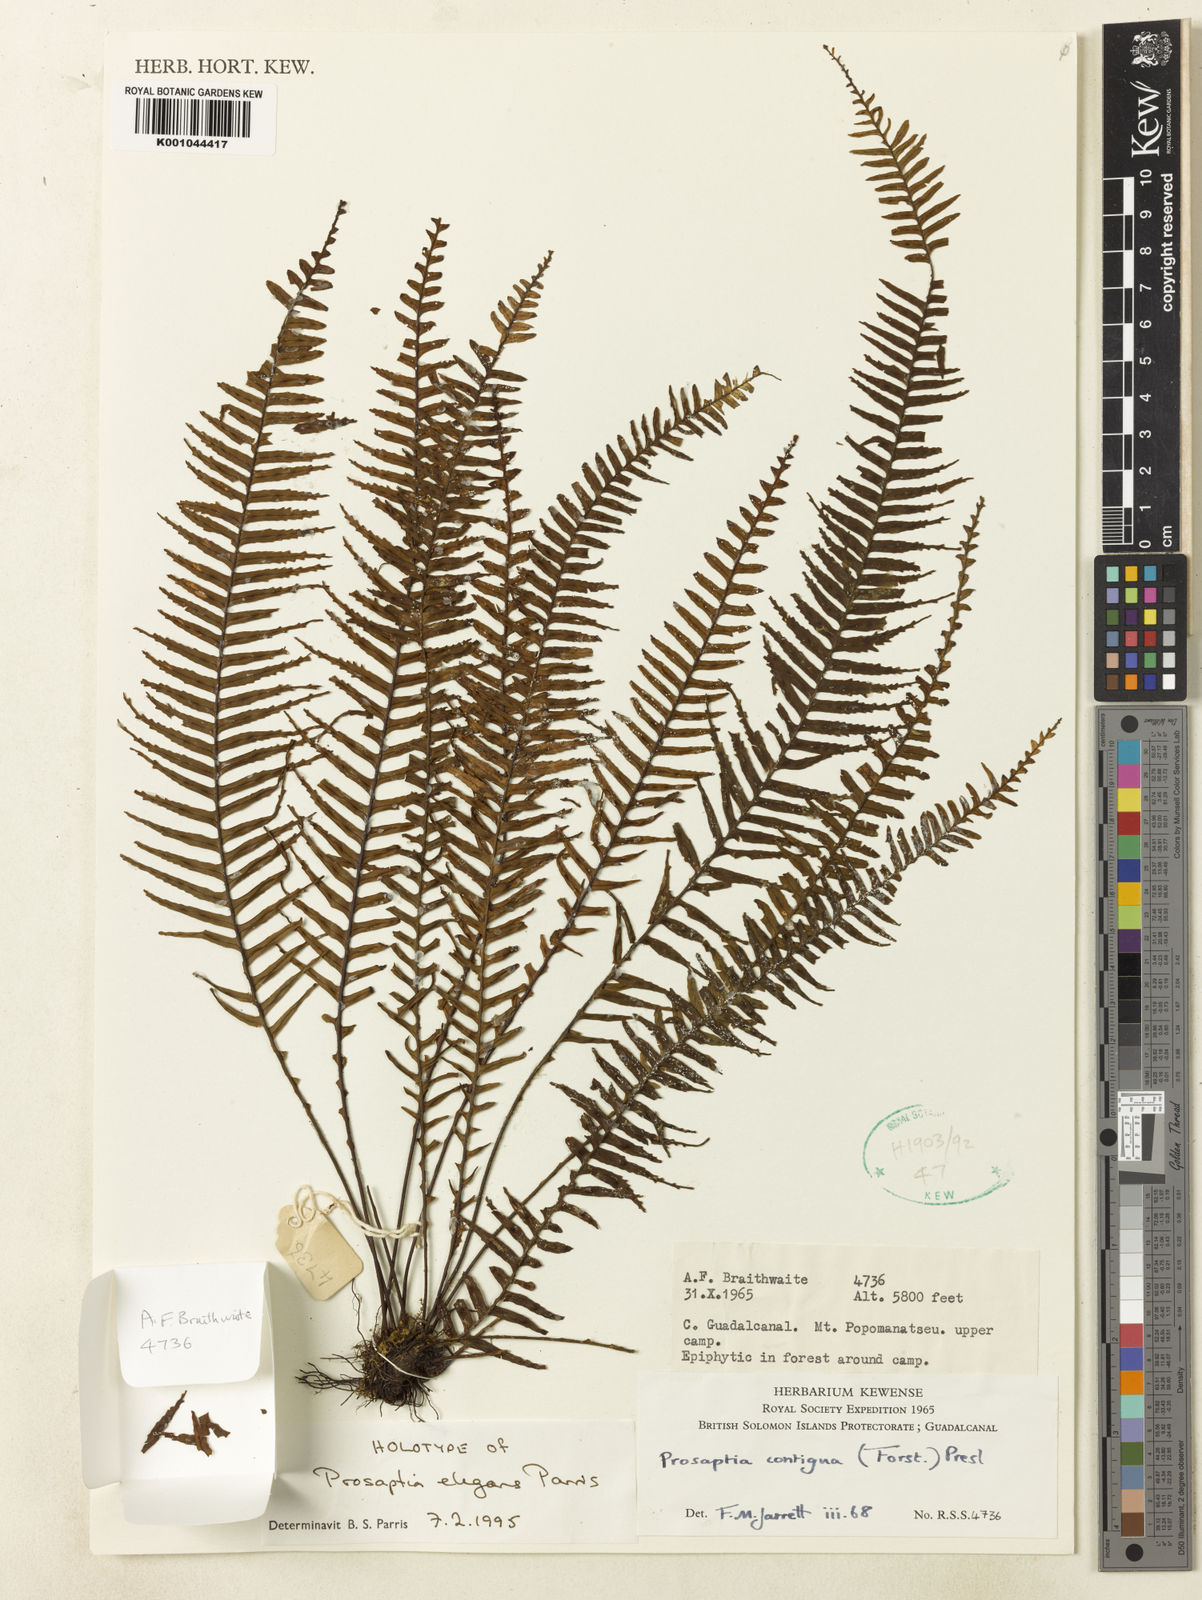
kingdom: Plantae
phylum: Tracheophyta
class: Polypodiopsida
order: Polypodiales
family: Polypodiaceae
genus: Prosaptia
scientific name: Prosaptia contigua
